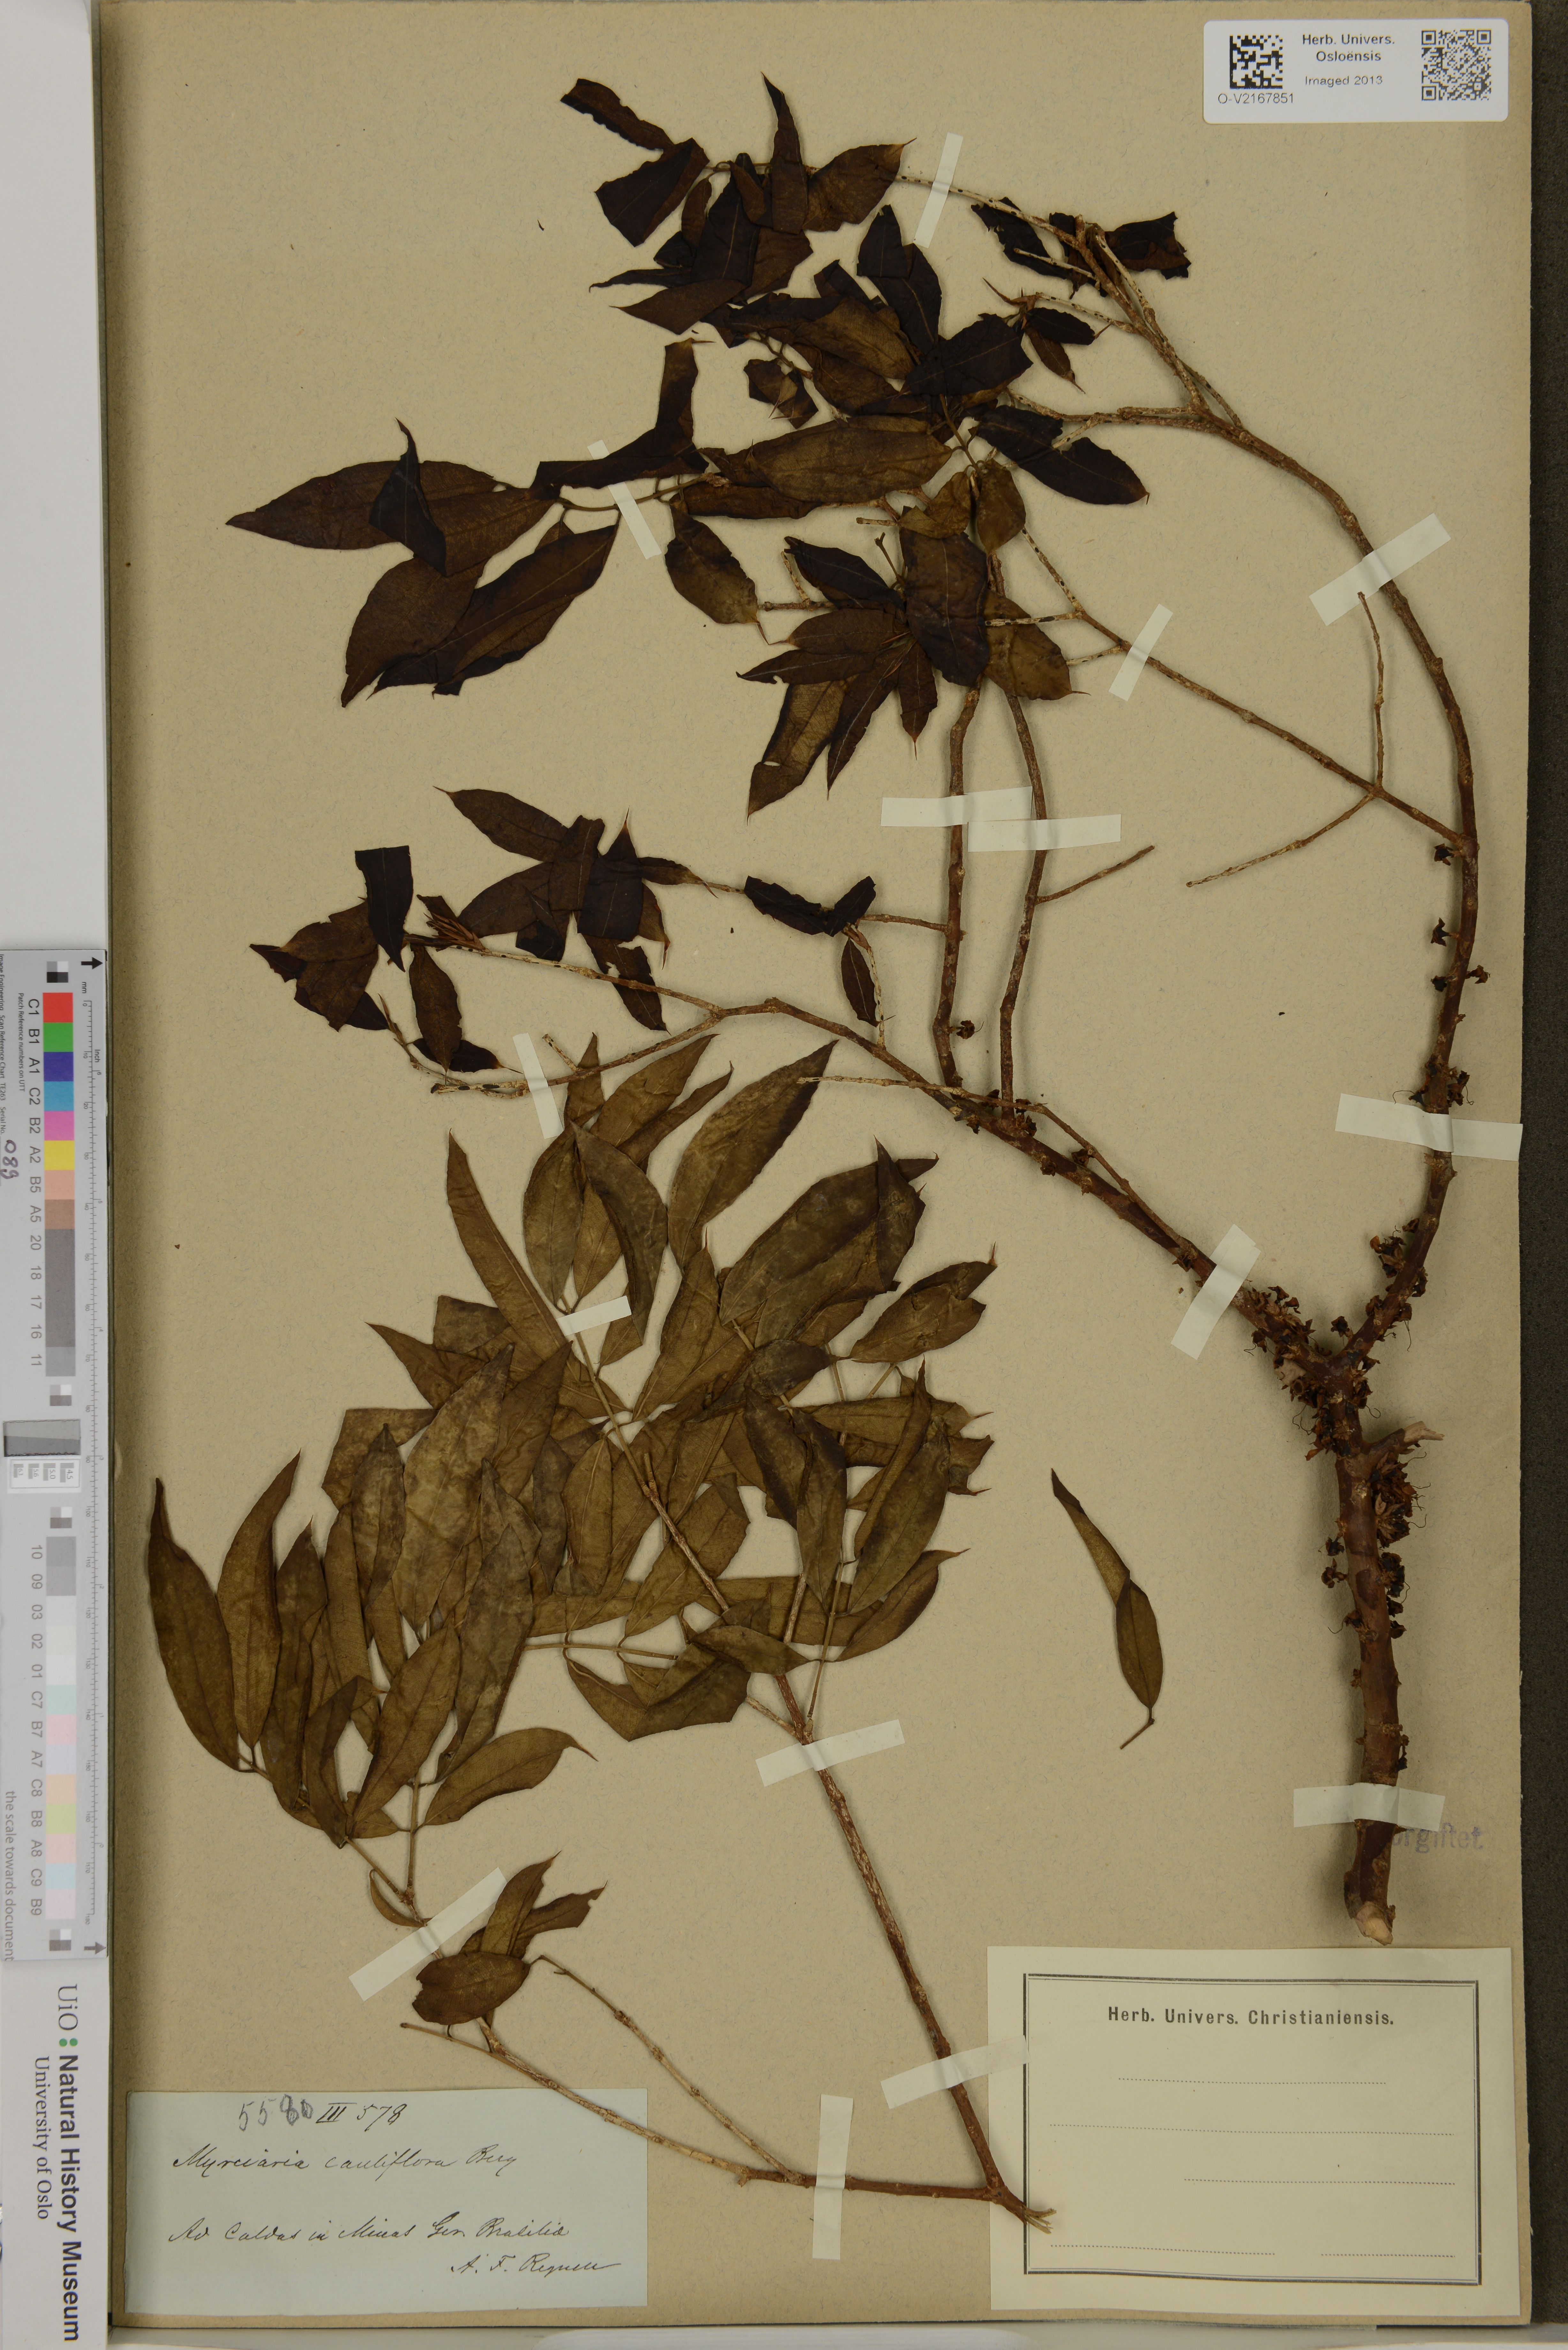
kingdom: Plantae
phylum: Tracheophyta
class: Magnoliopsida
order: Myrtales
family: Myrtaceae
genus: Plinia
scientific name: Plinia cauliflora
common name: Brazilian grapetree
